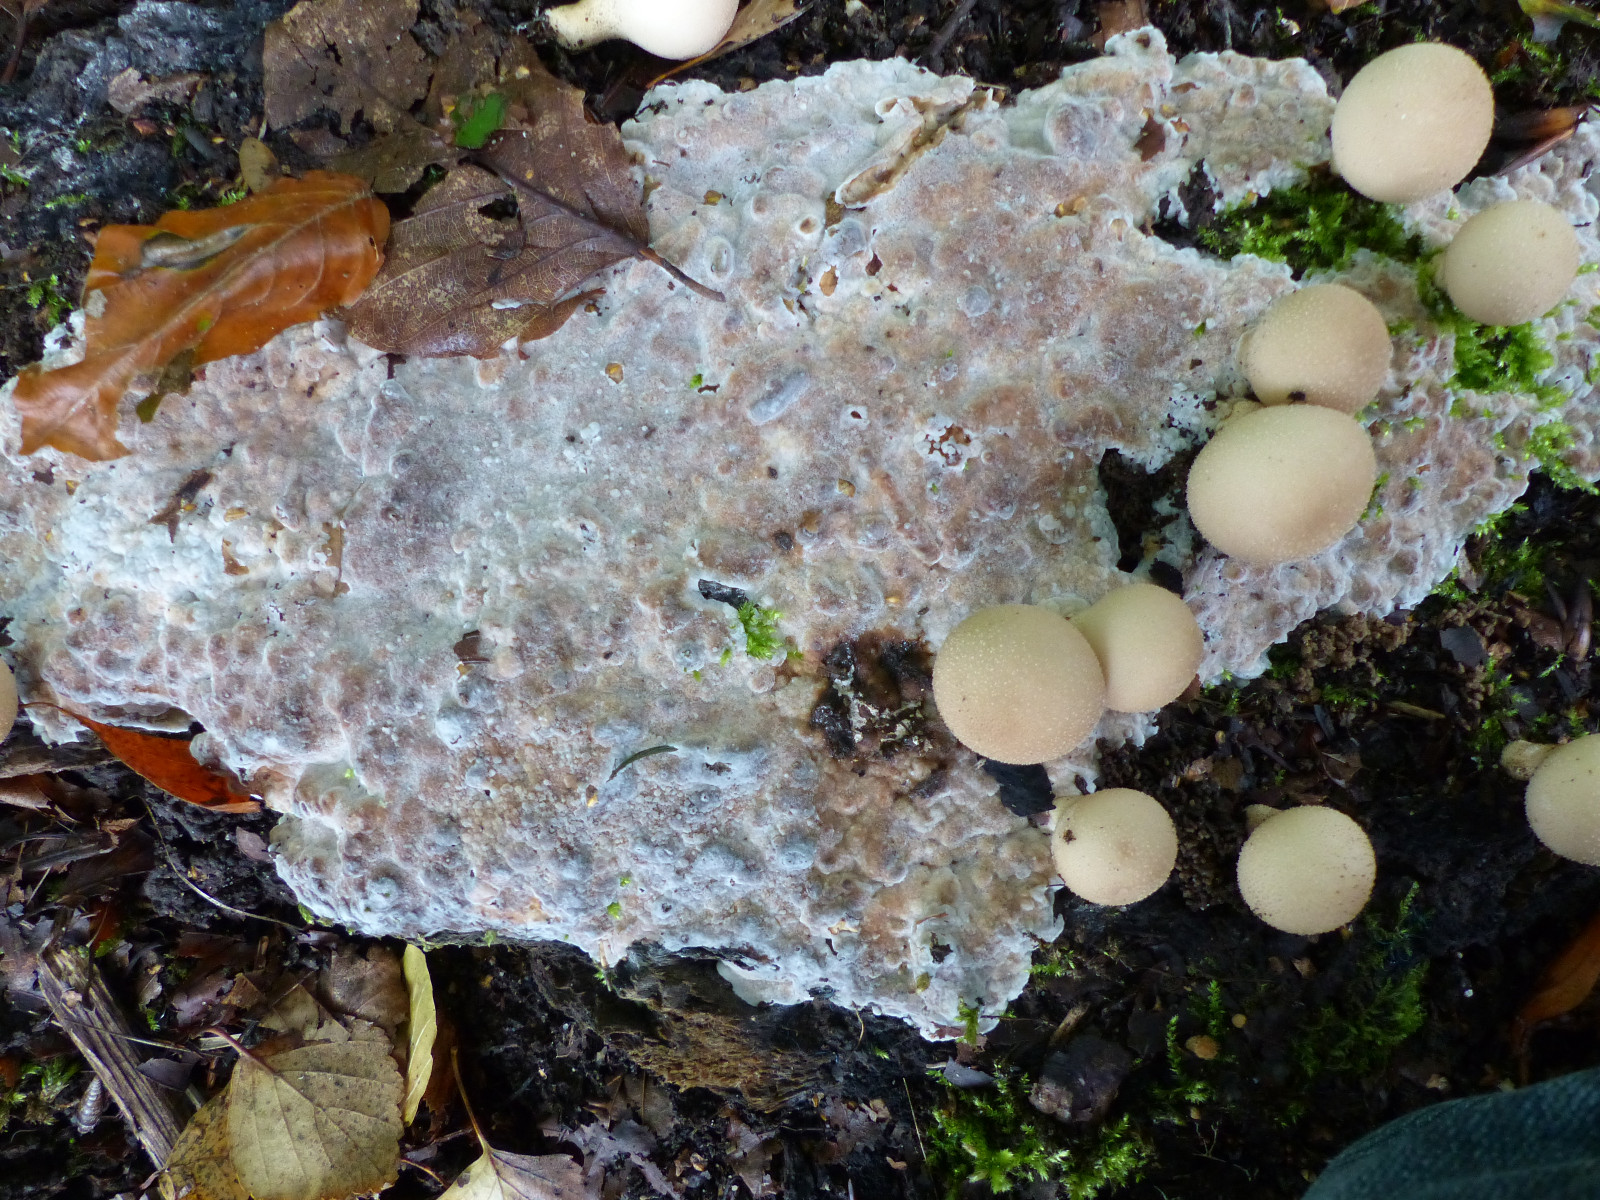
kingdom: Fungi
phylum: Basidiomycota
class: Agaricomycetes
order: Polyporales
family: Meripilaceae
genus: Rigidoporus
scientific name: Rigidoporus sanguinolentus
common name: blod-skorpeporesvamp
